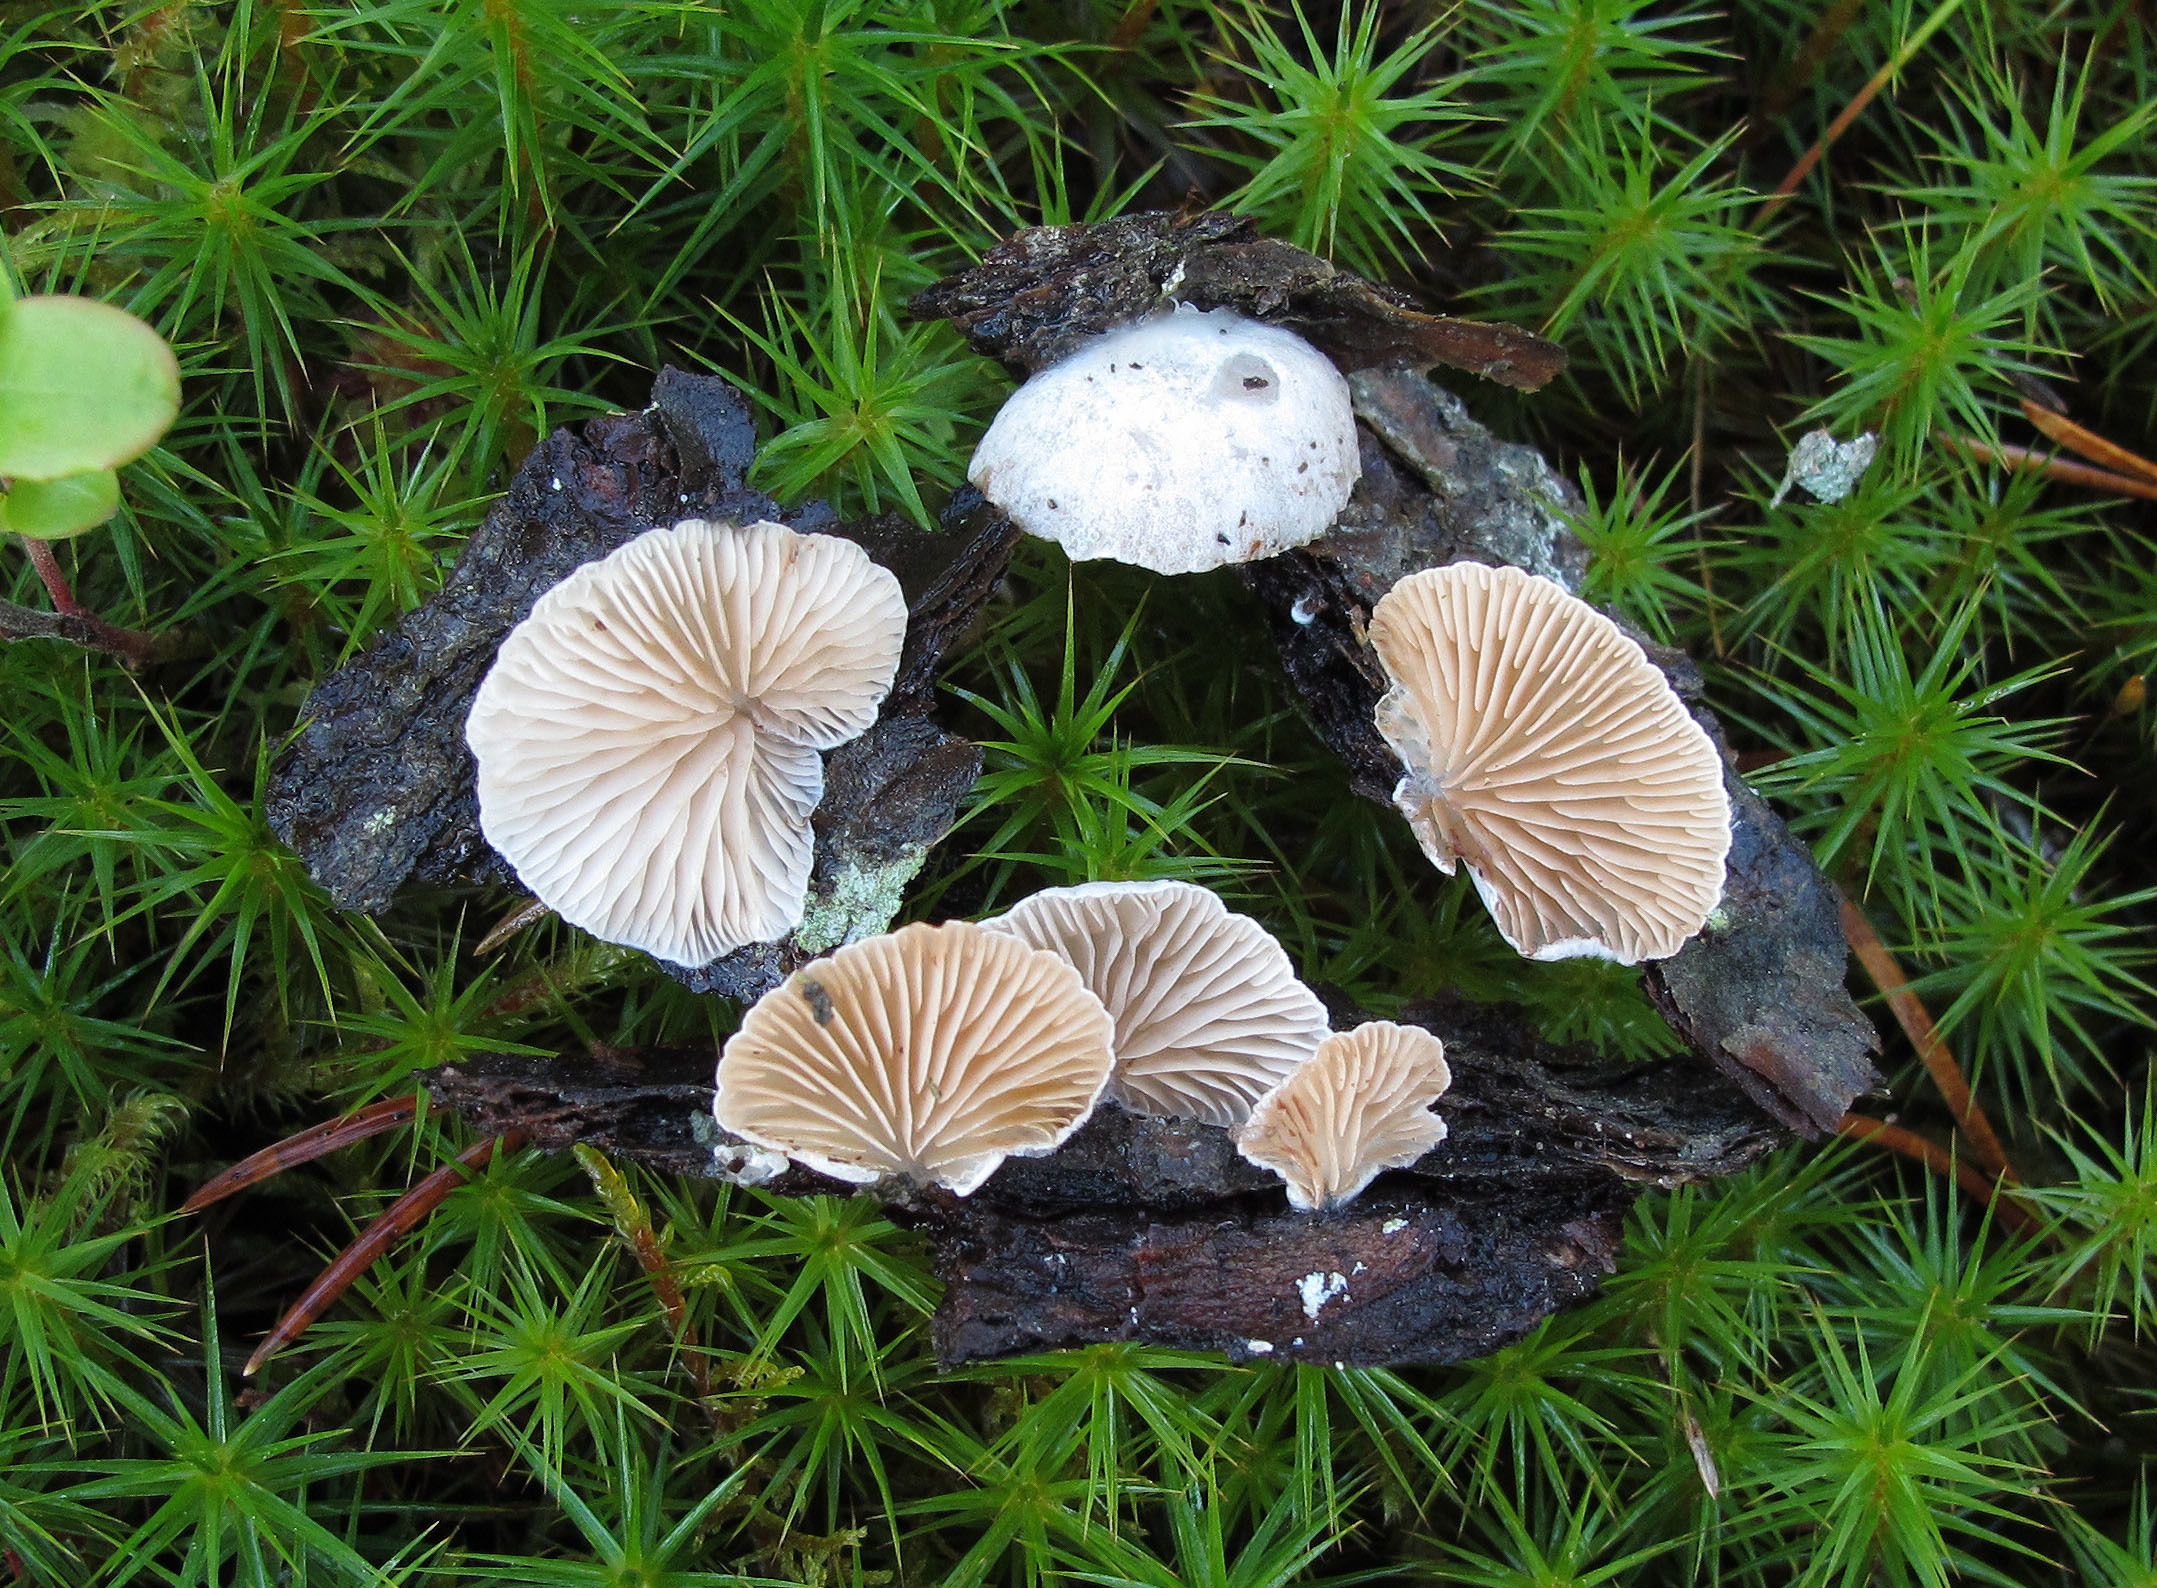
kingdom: Fungi
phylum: Basidiomycota
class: Agaricomycetes
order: Agaricales
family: Crepidotaceae
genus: Crepidotus
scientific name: Crepidotus cesatii
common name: Roundspored oysterling
